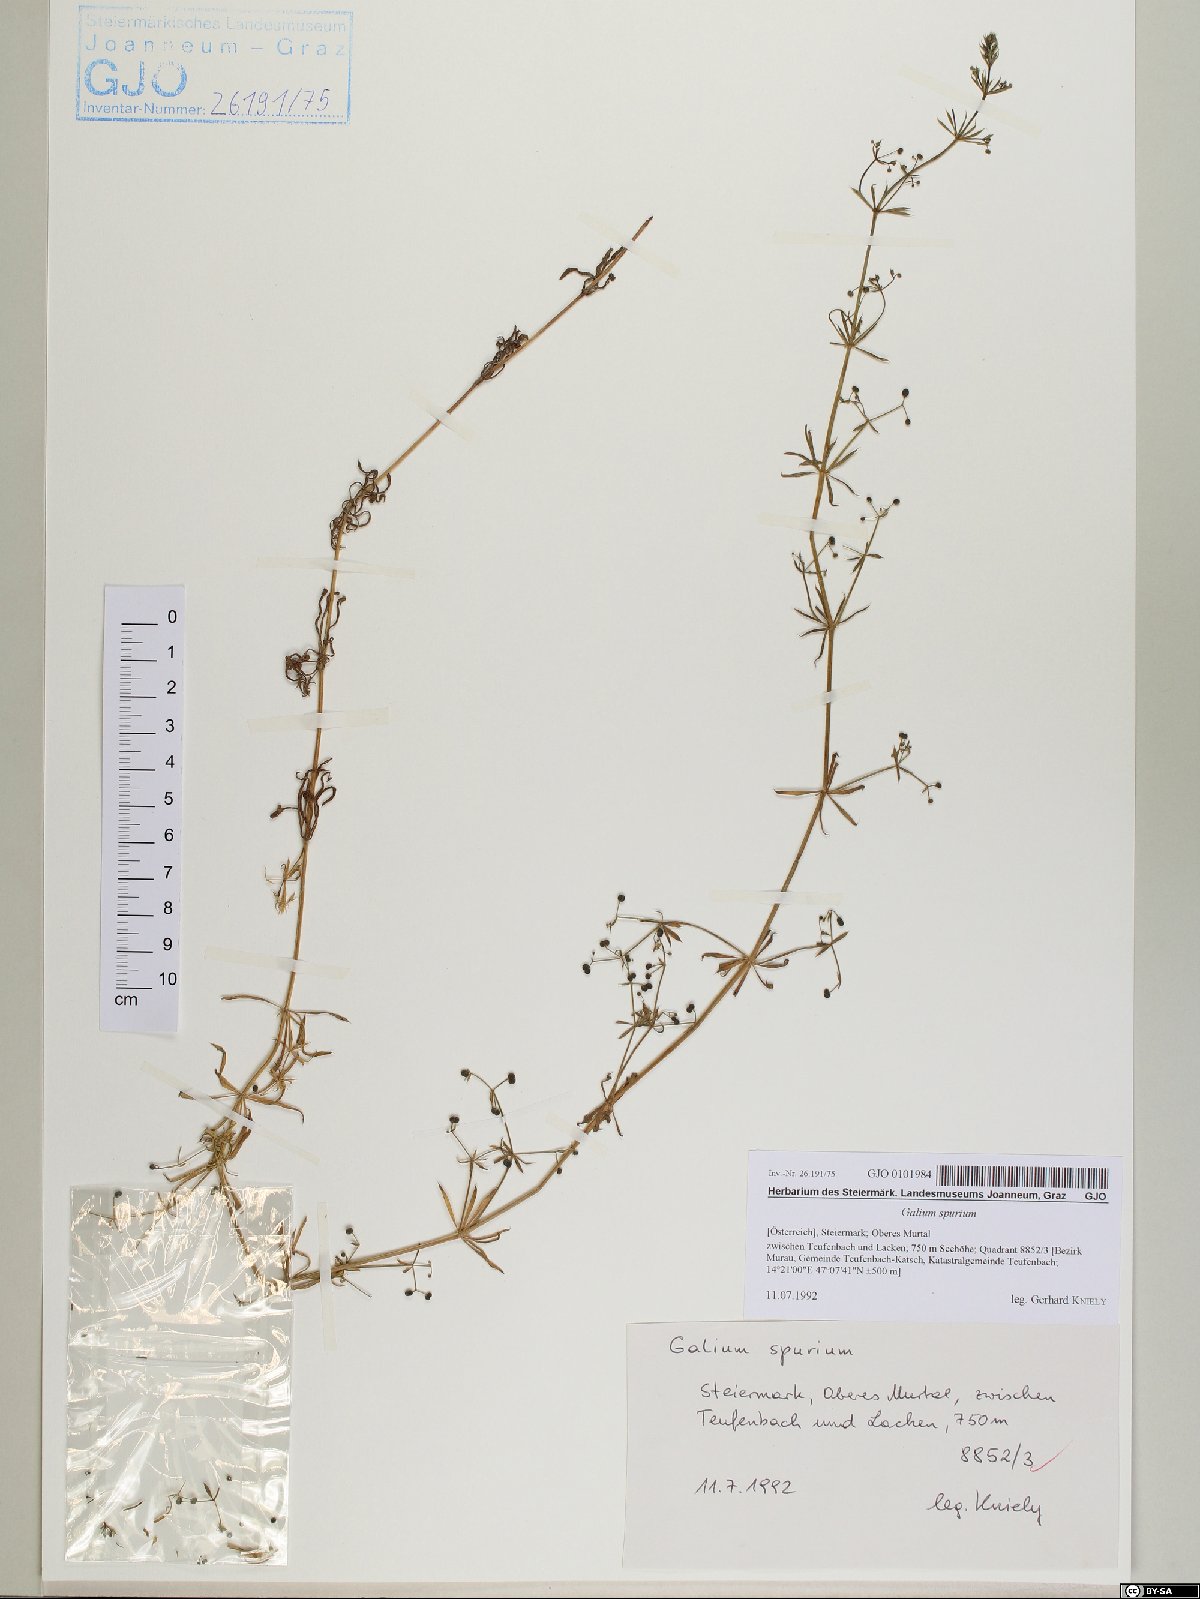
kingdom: Plantae
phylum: Tracheophyta
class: Magnoliopsida
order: Gentianales
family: Rubiaceae
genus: Galium
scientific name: Galium spurium
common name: False cleavers
